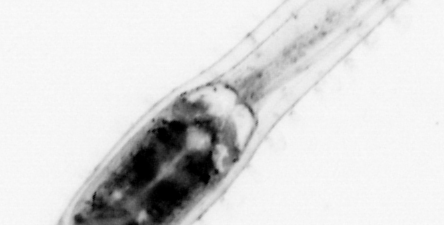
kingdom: Animalia
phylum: Chaetognatha
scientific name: Chaetognatha
